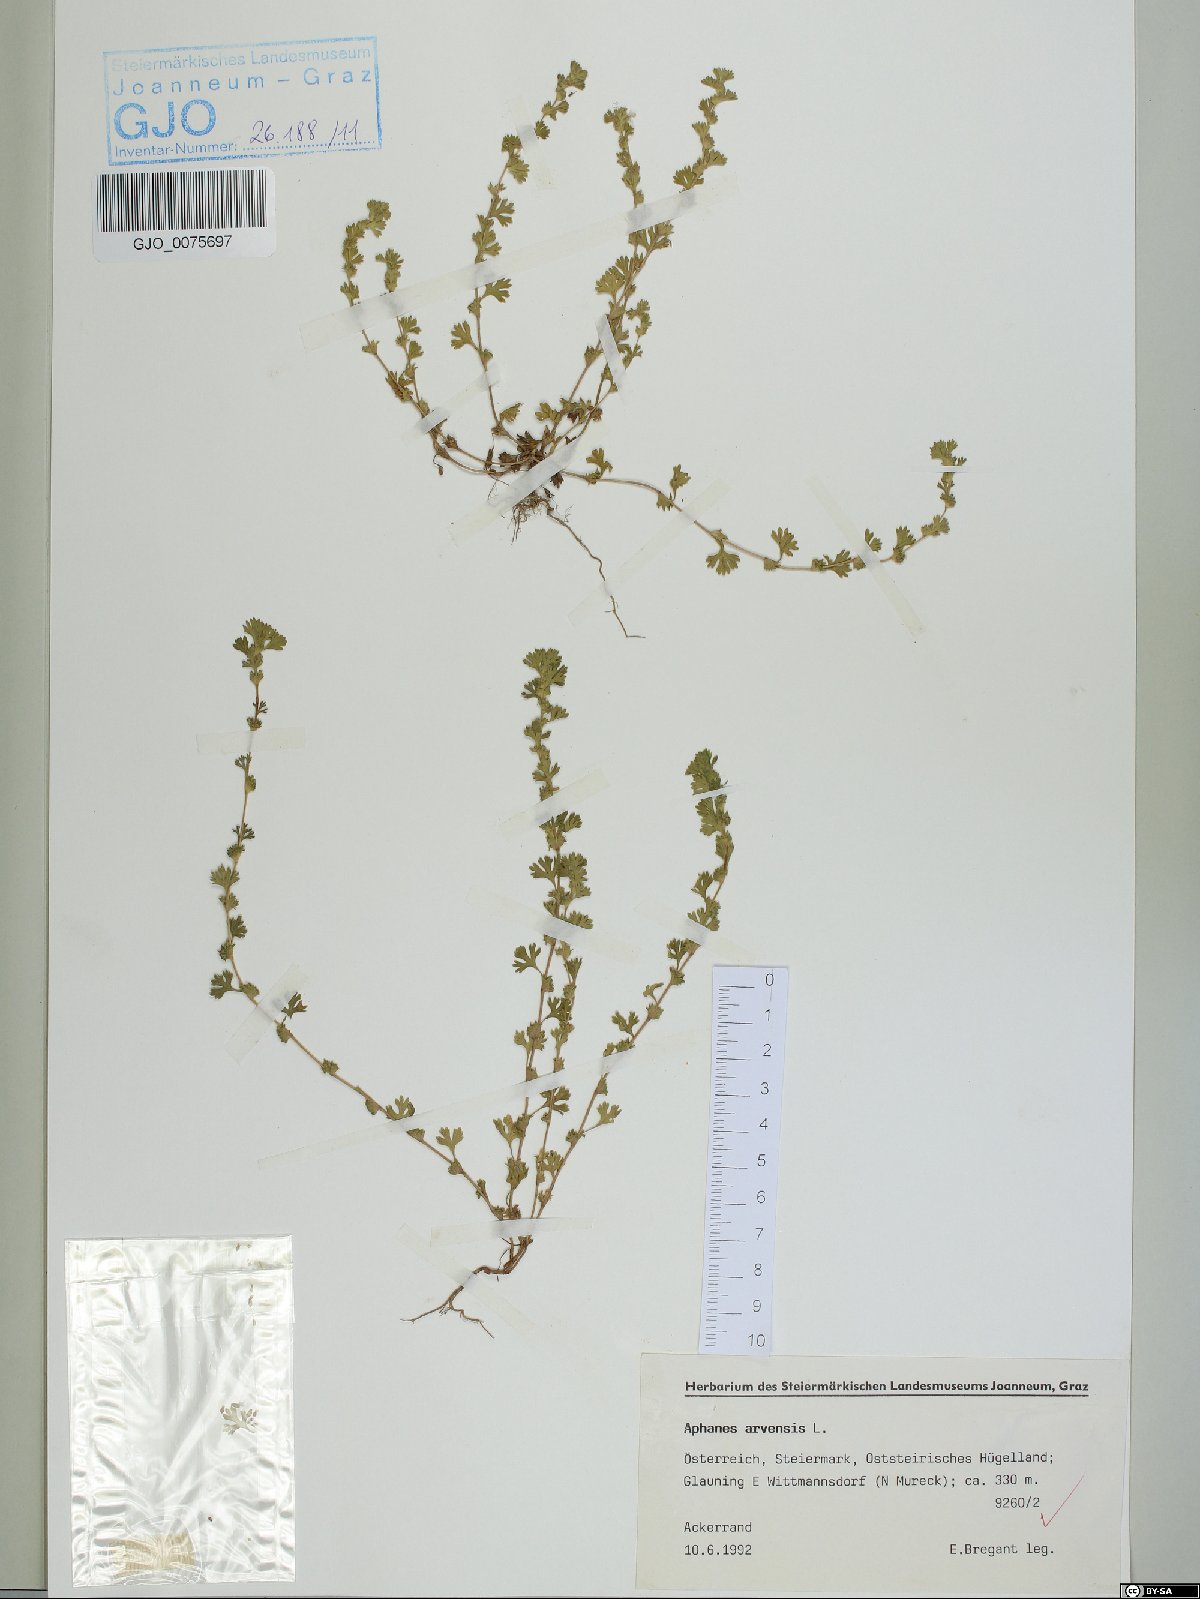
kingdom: Plantae
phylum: Tracheophyta
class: Magnoliopsida
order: Rosales
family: Rosaceae
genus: Aphanes
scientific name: Aphanes arvensis
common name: Parsley-piert
